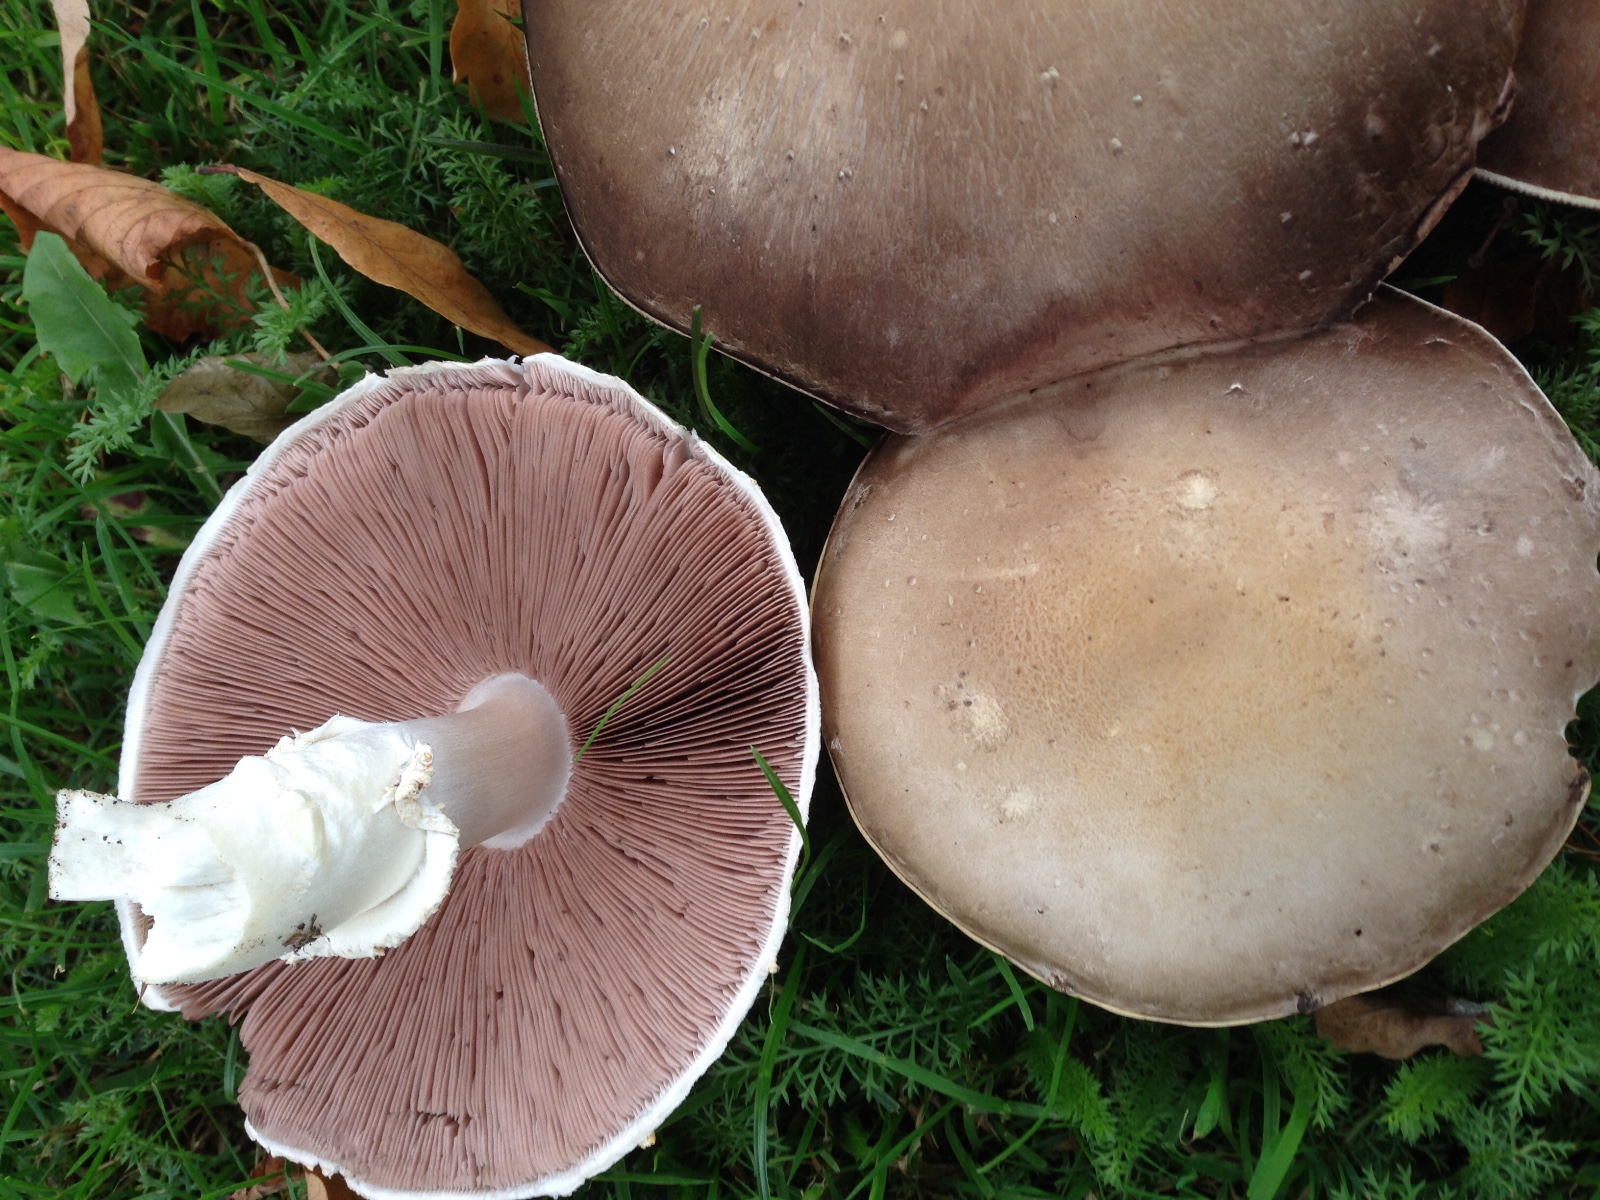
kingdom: Fungi
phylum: Basidiomycota
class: Agaricomycetes
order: Agaricales
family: Agaricaceae
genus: Agaricus
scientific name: Agaricus
